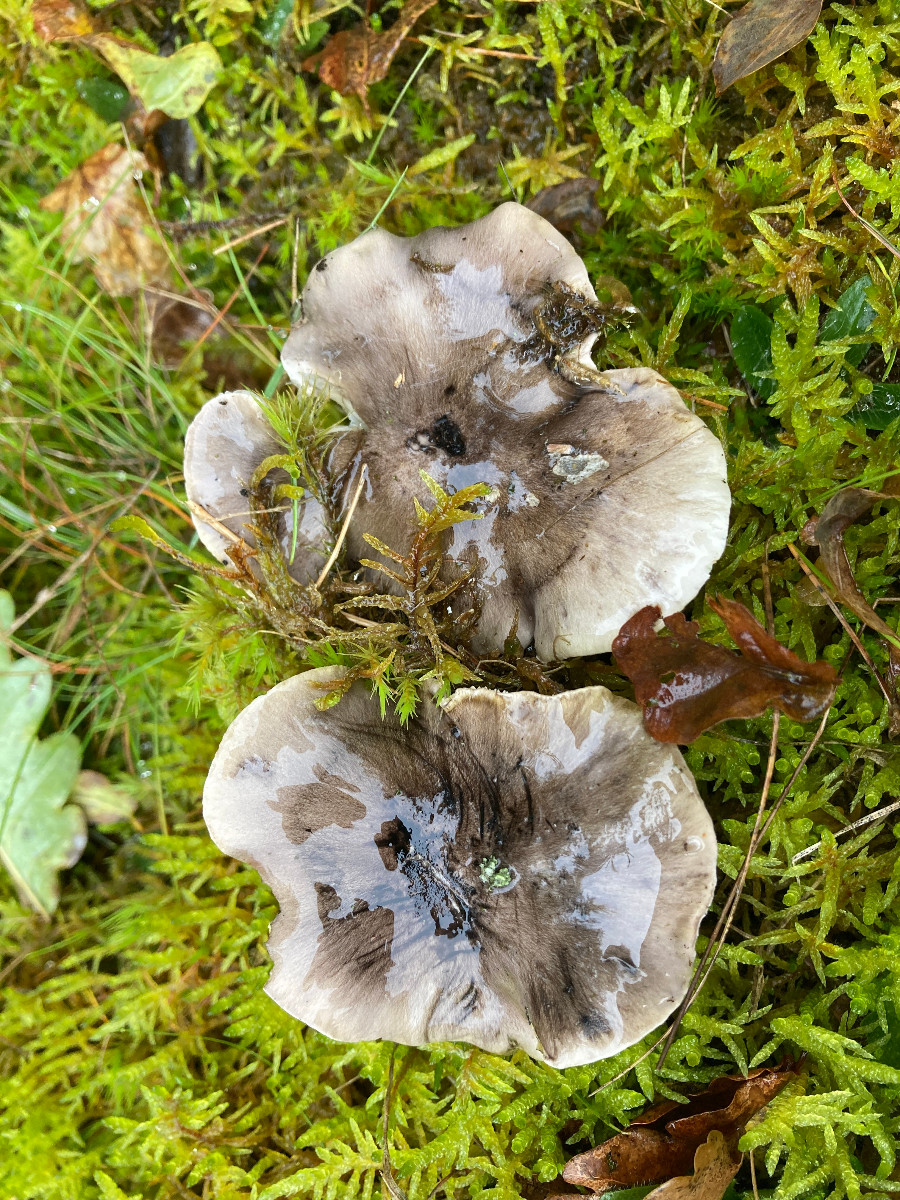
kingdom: Fungi
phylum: Basidiomycota
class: Agaricomycetes
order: Agaricales
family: Tricholomataceae
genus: Tricholoma
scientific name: Tricholoma portentosum
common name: grå ridderhat
